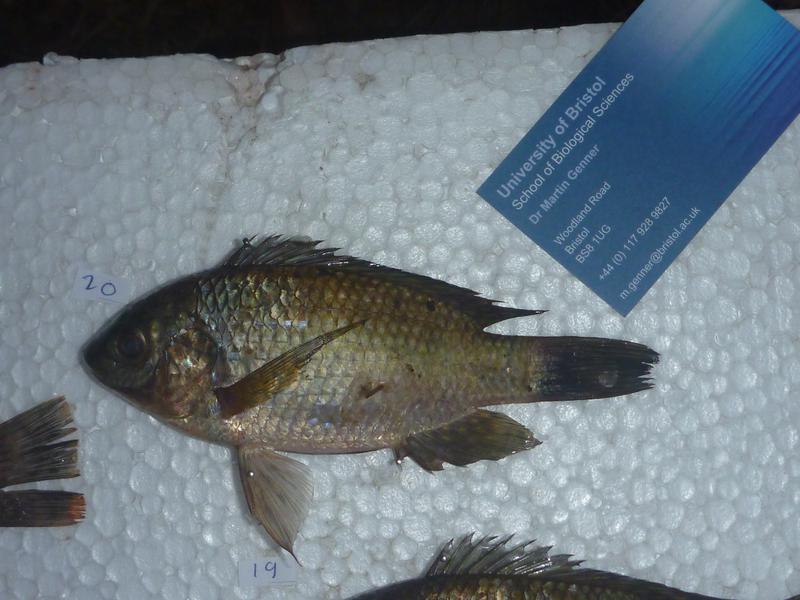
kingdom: Animalia
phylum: Chordata
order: Perciformes
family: Cichlidae
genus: Oreochromis
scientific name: Oreochromis leucostictus
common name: Blue spotted tilapia
